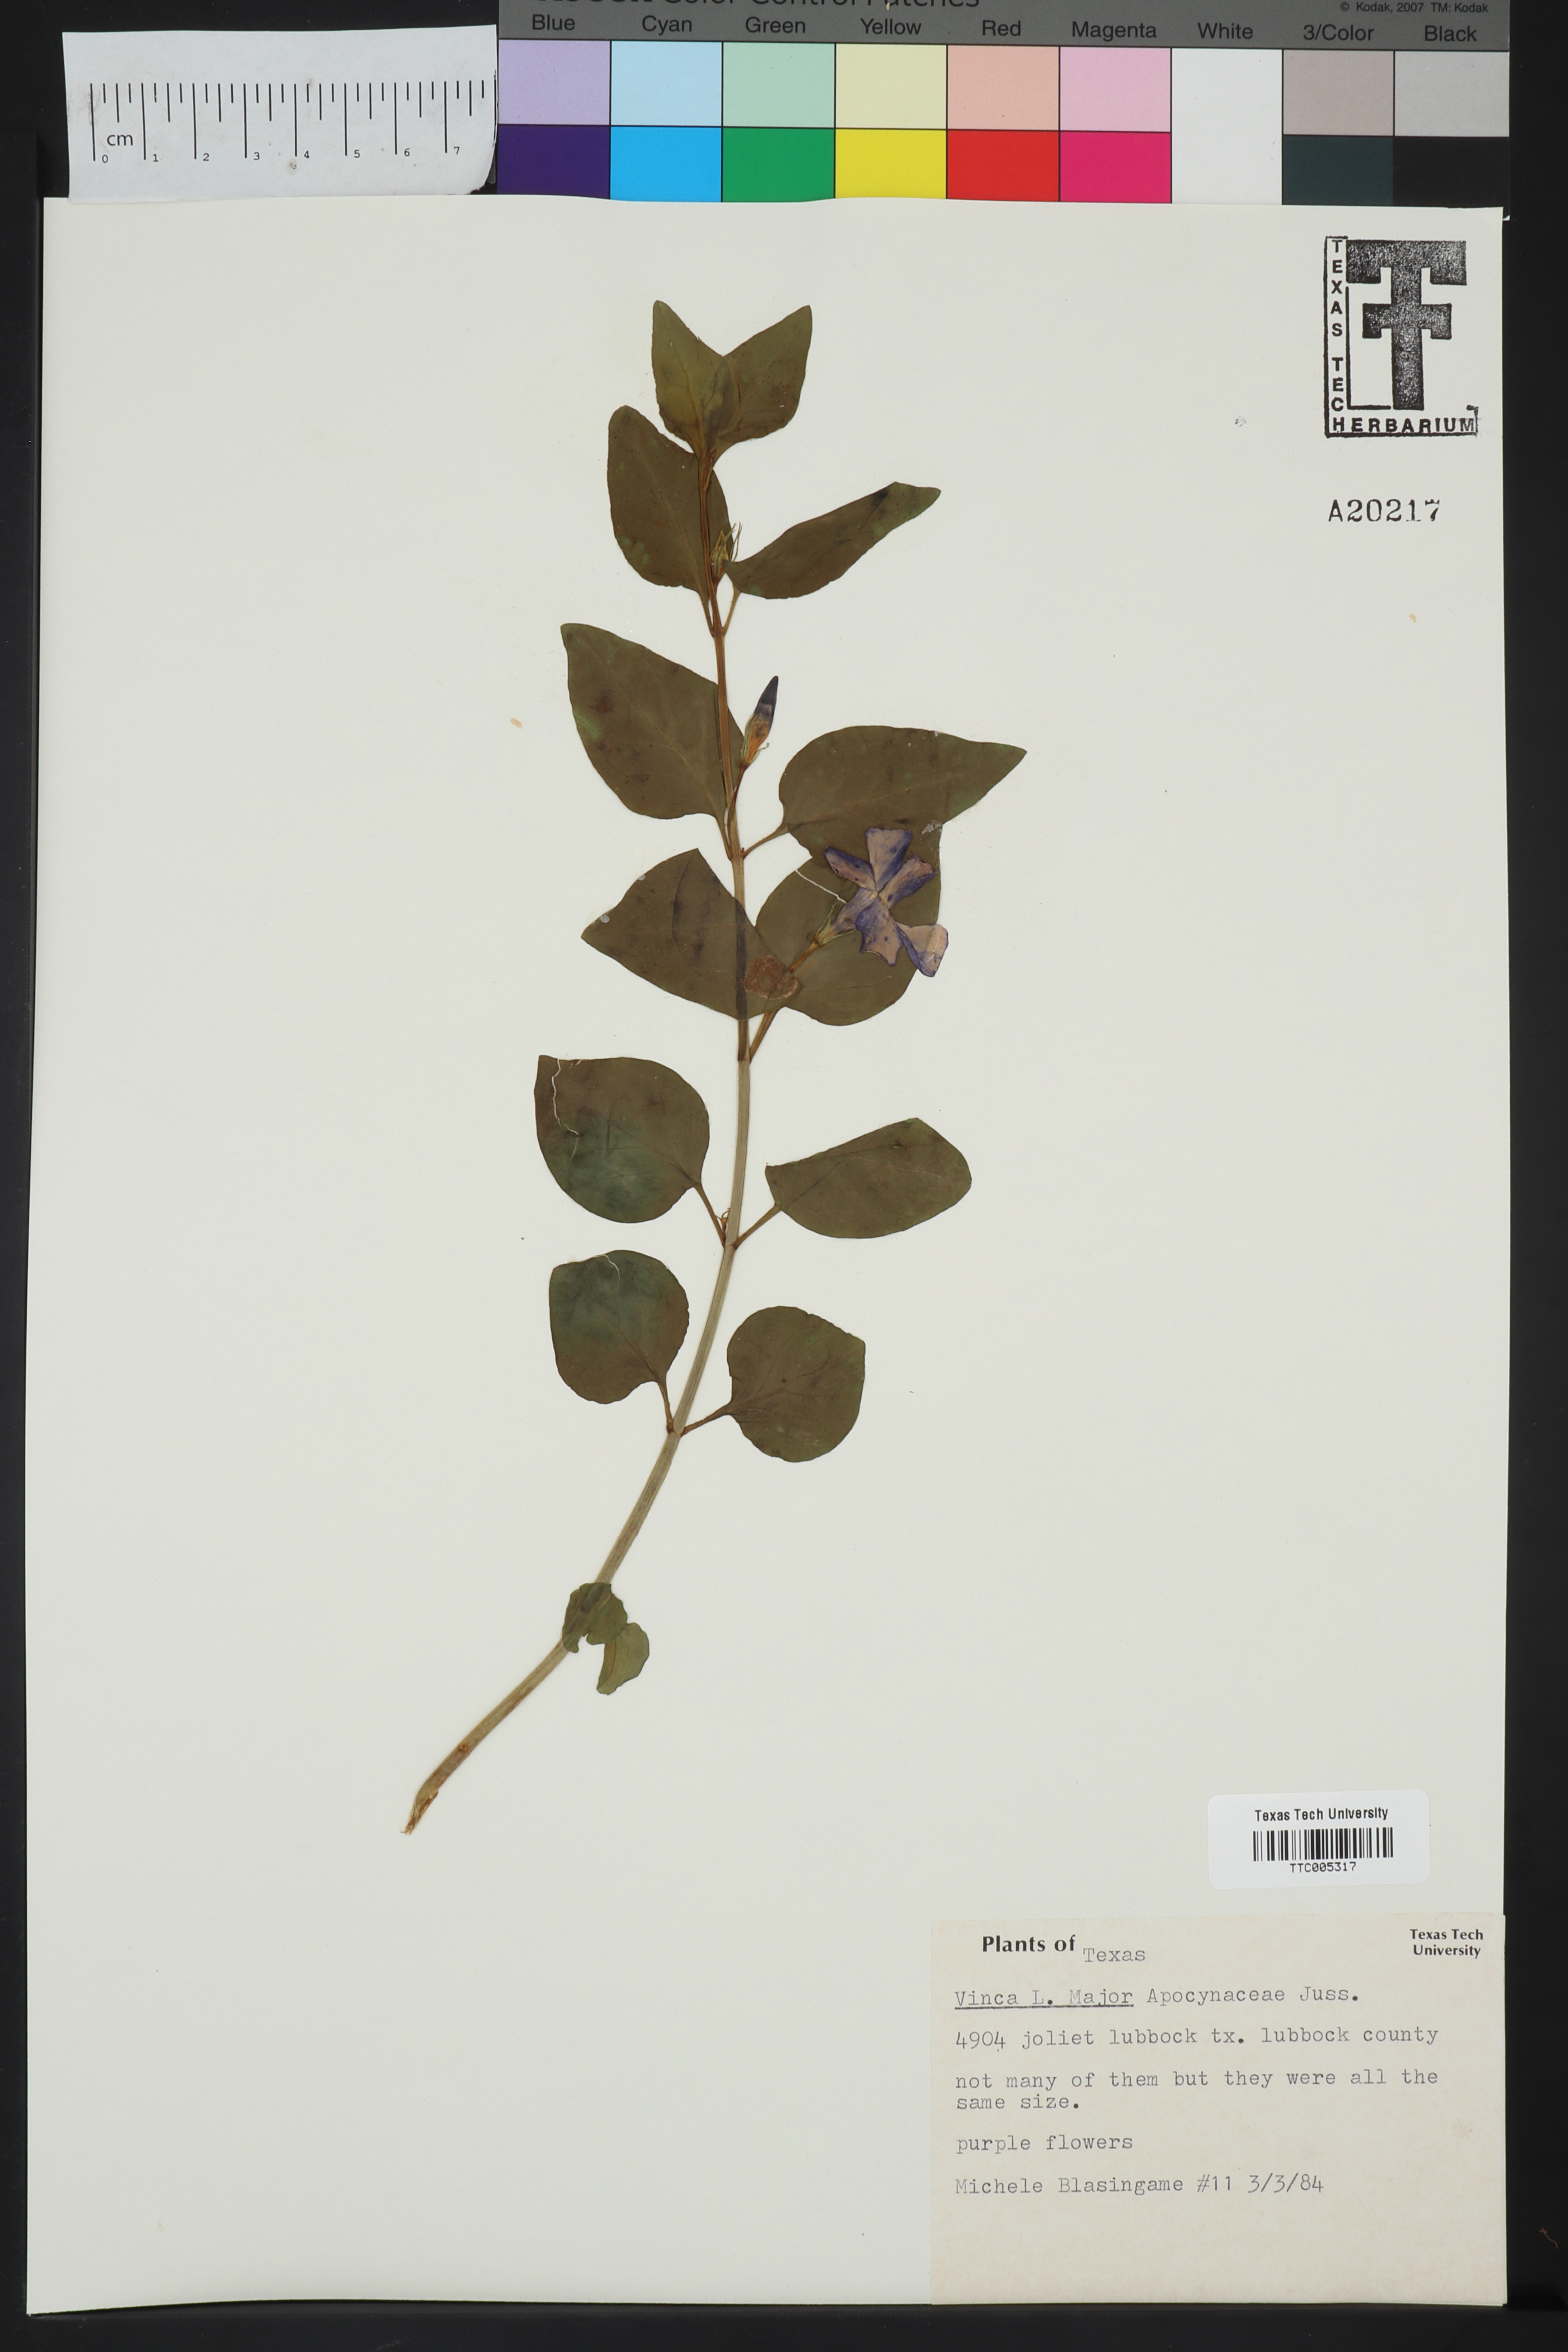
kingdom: Plantae
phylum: Tracheophyta
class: Magnoliopsida
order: Gentianales
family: Apocynaceae
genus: Vinca
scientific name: Vinca
